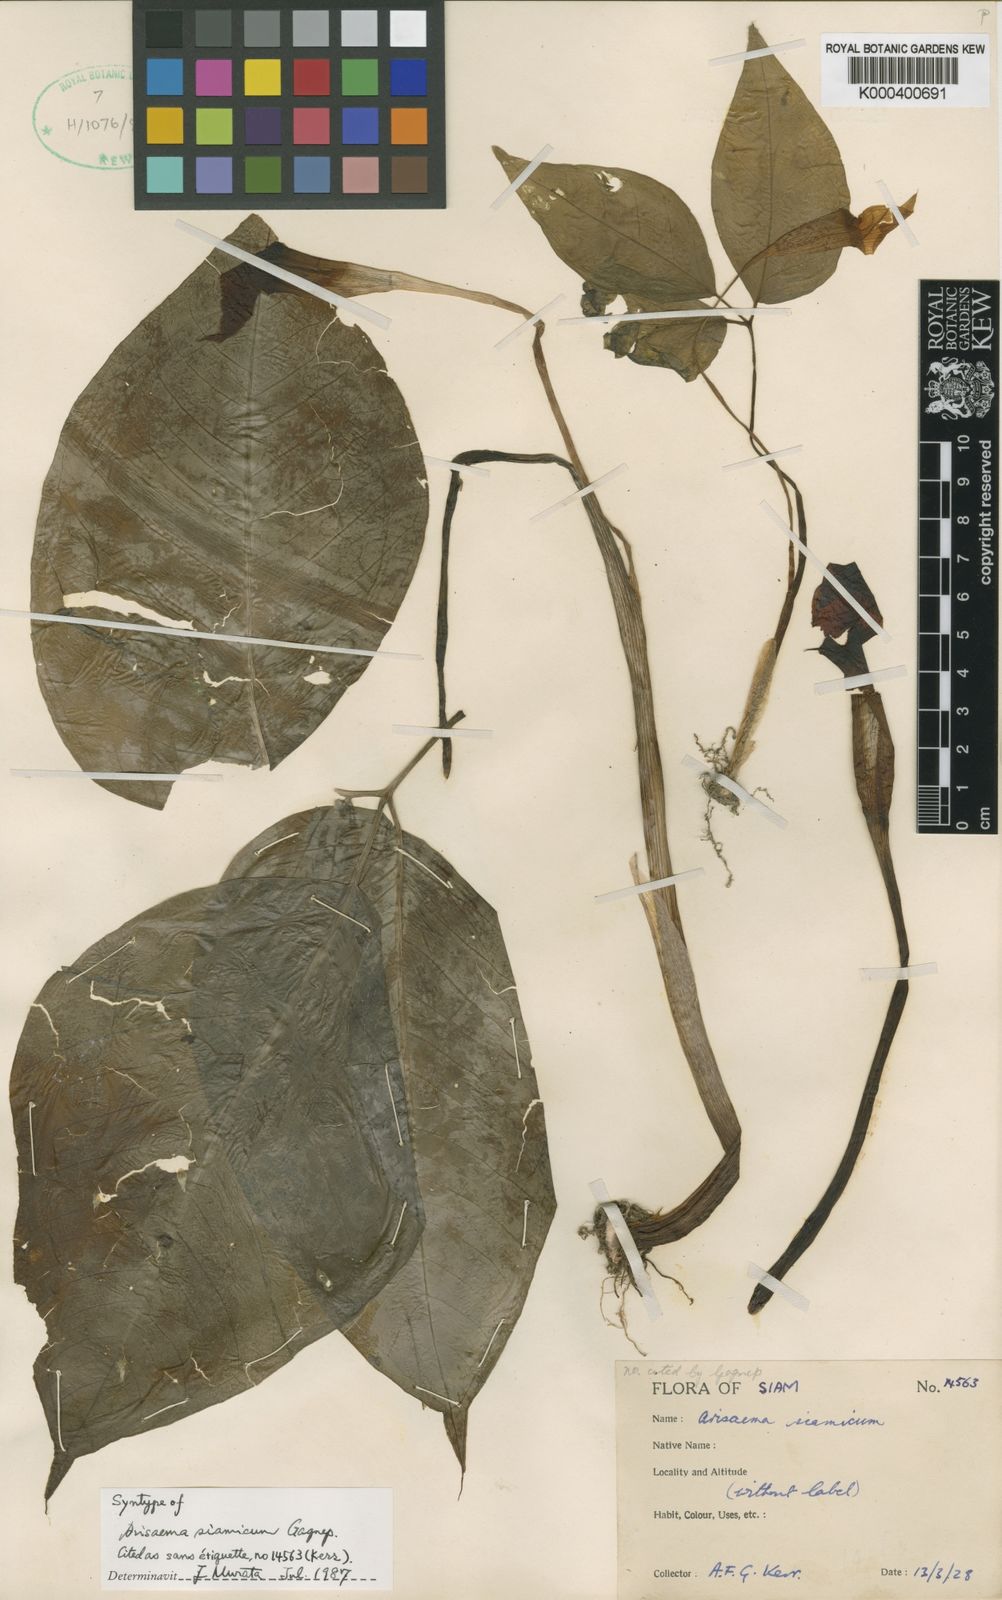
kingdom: Plantae
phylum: Tracheophyta
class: Liliopsida
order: Alismatales
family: Araceae
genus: Arisaema
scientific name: Arisaema siamicum
